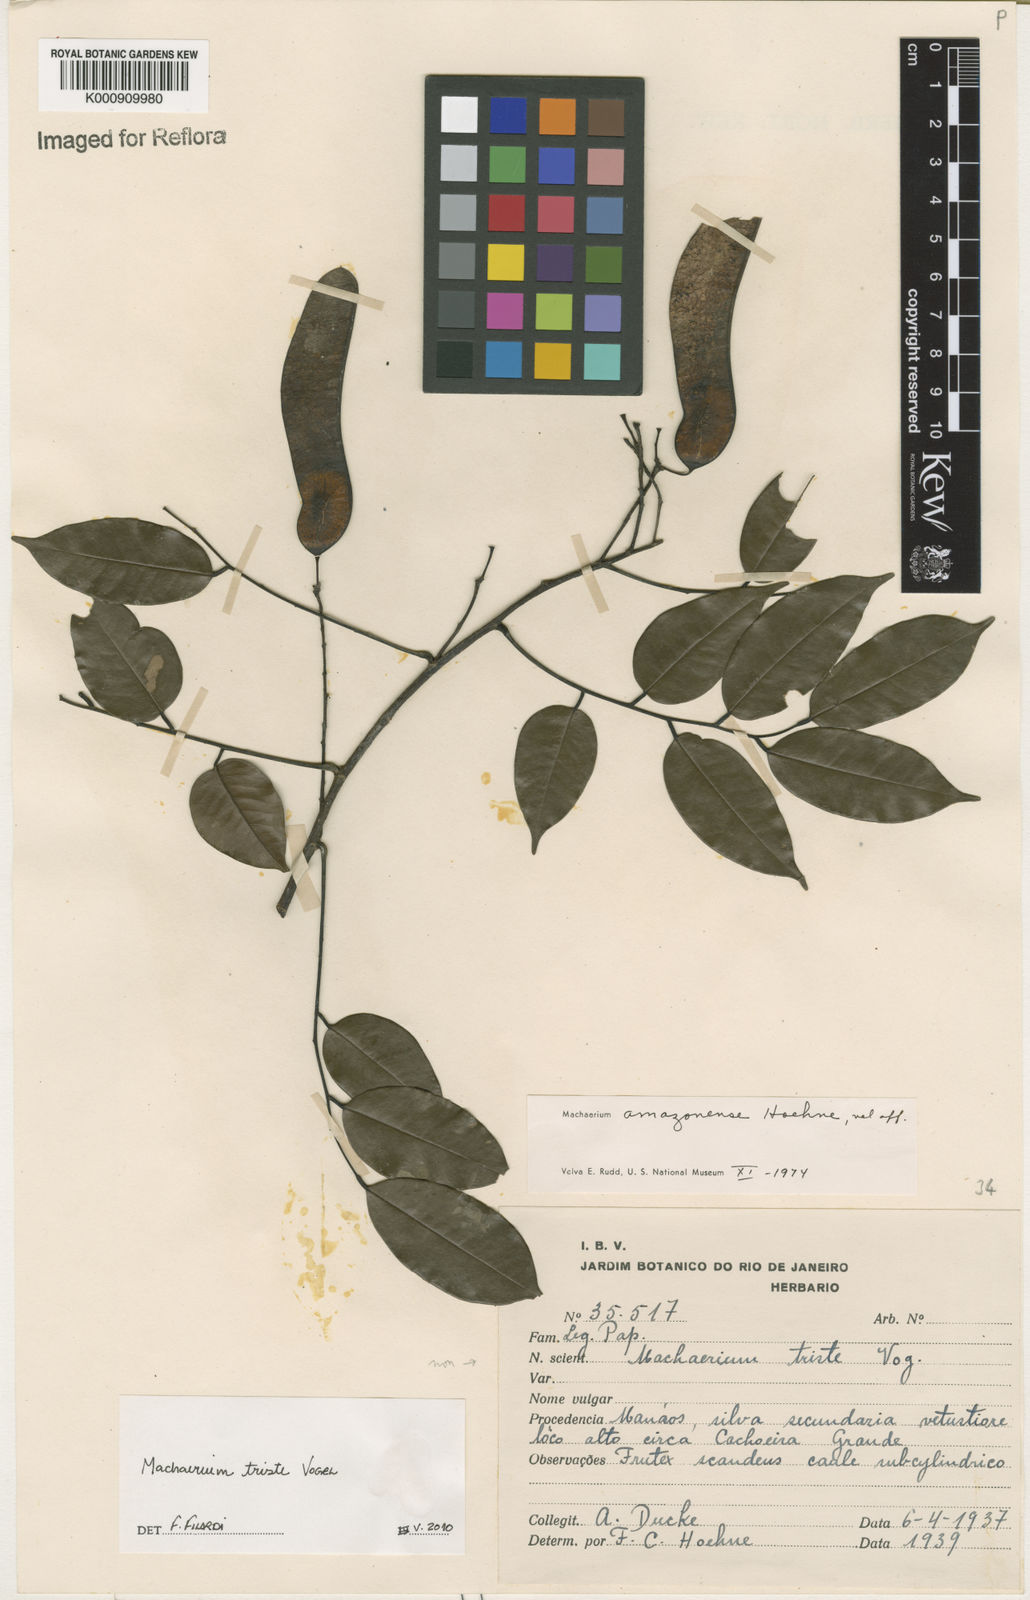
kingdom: Plantae
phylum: Tracheophyta
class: Magnoliopsida
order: Fabales
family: Fabaceae
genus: Machaerium
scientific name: Machaerium brasiliense
